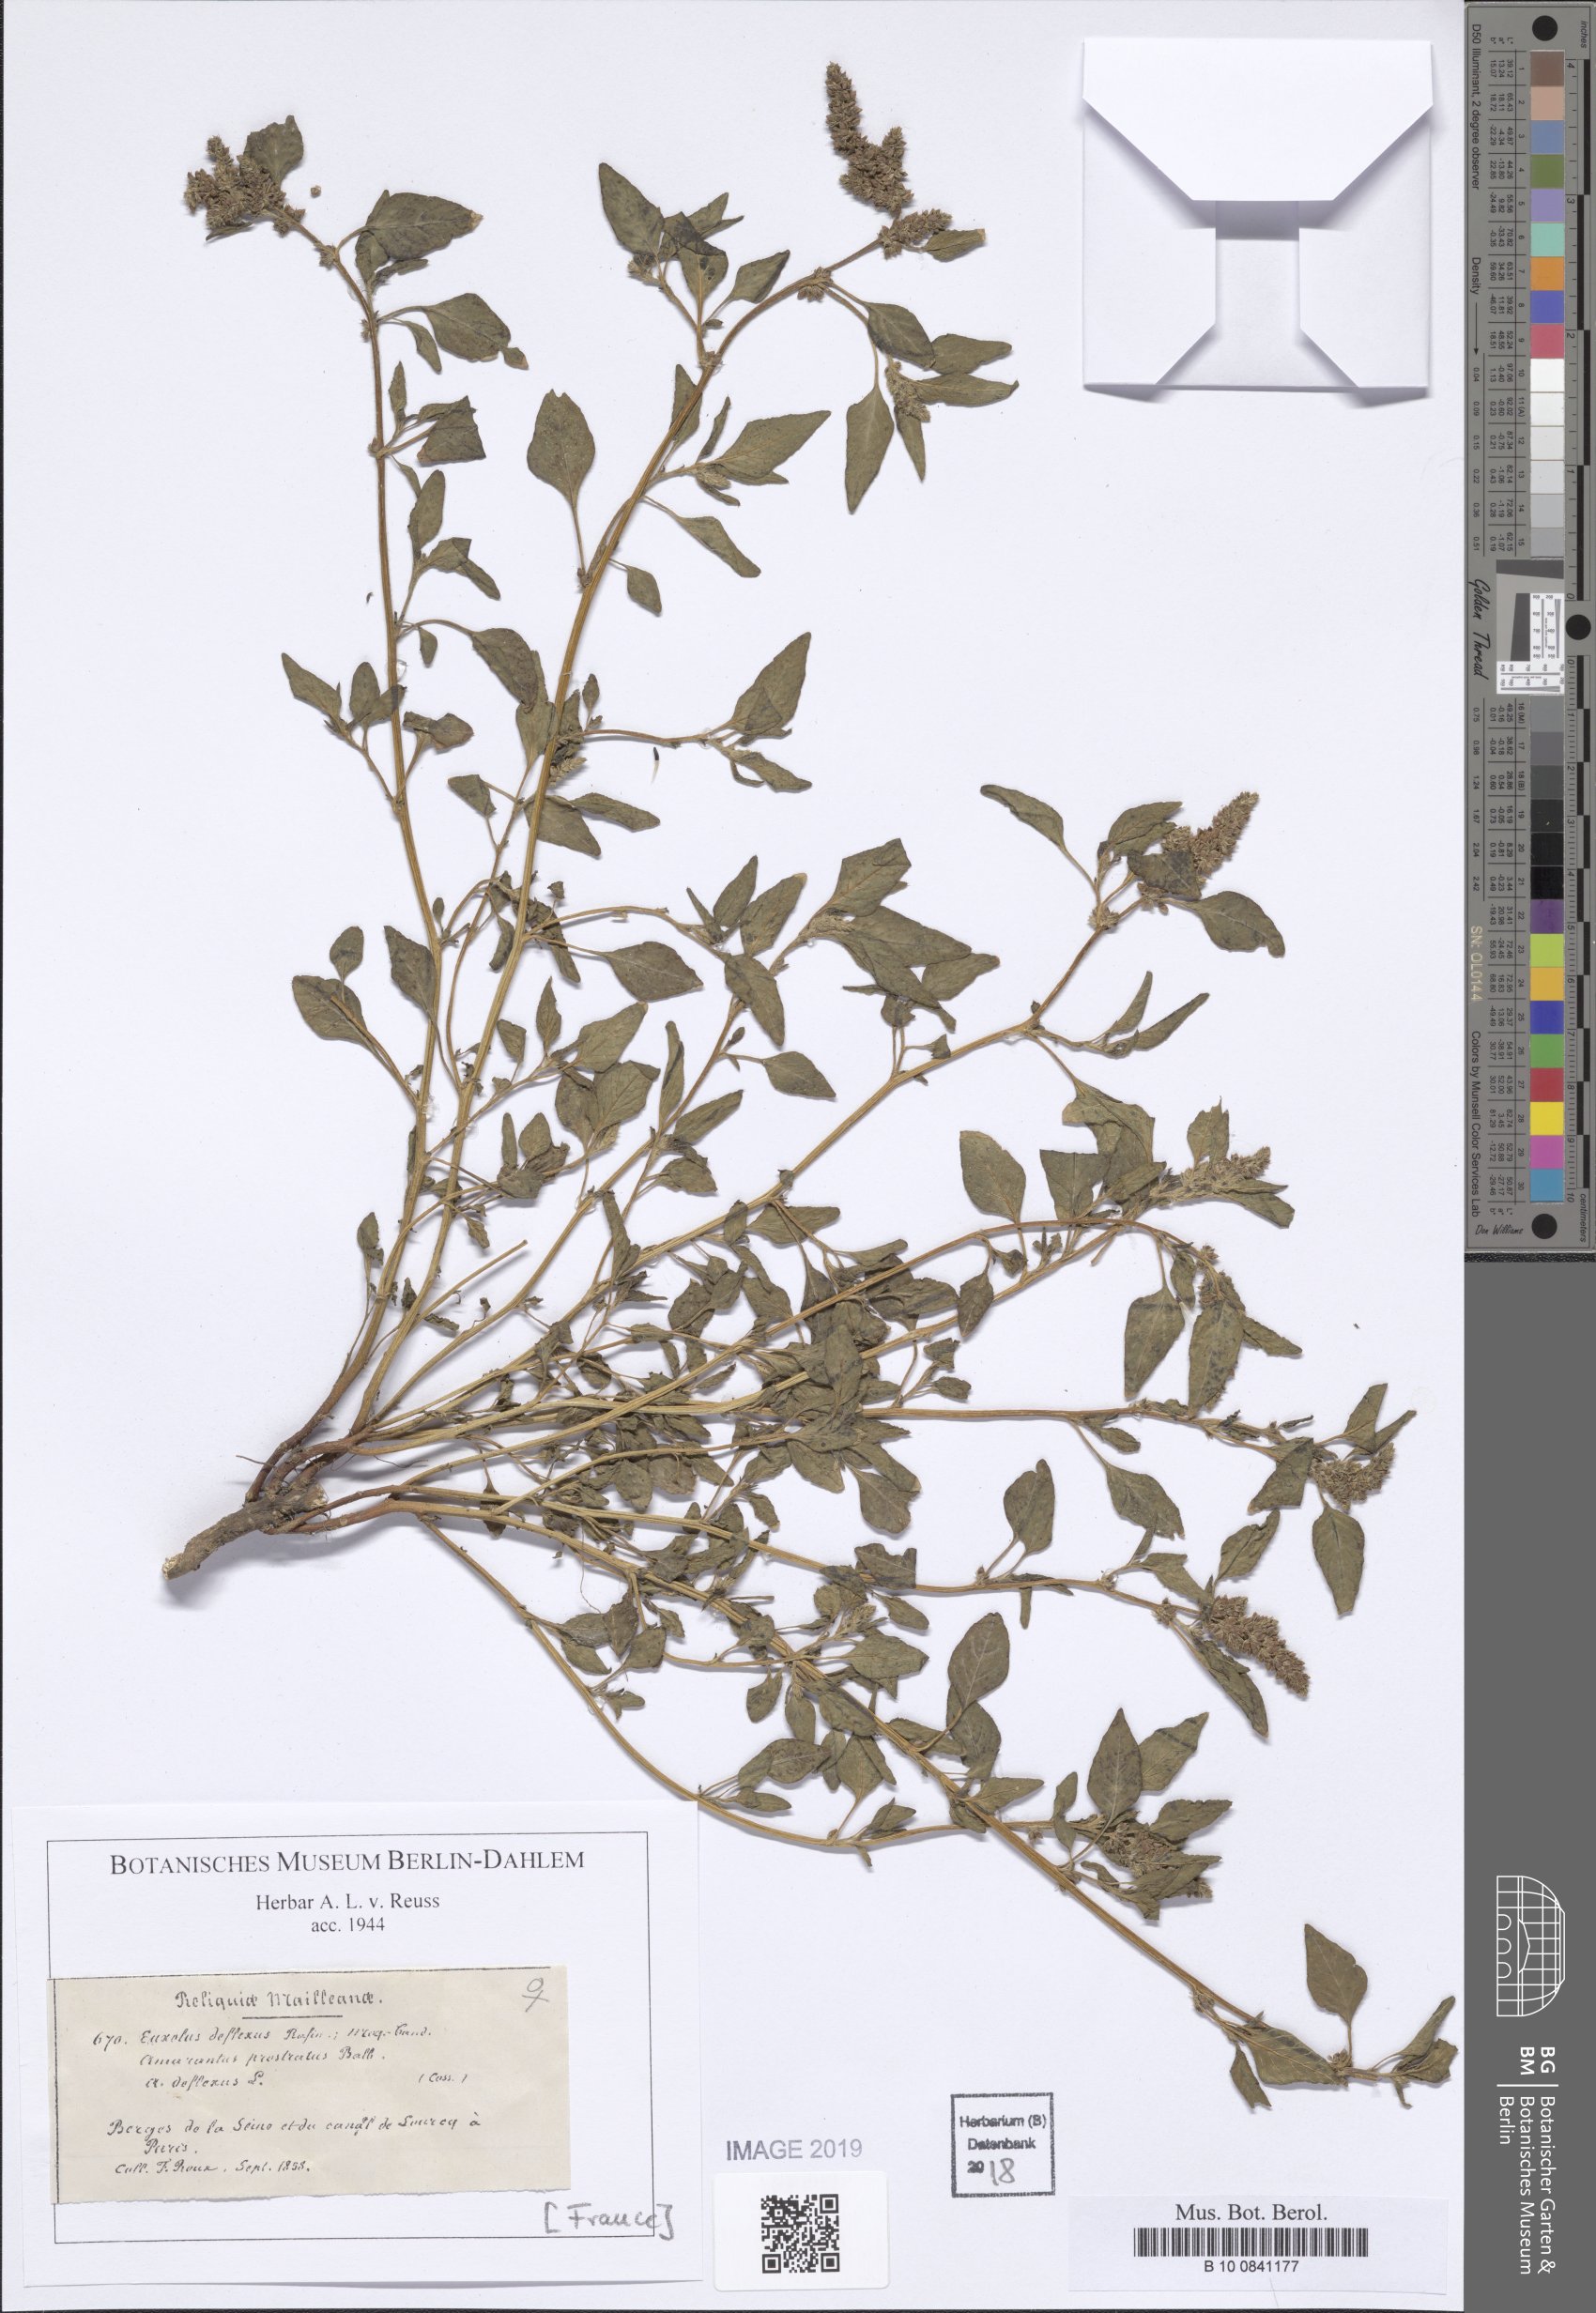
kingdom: Plantae
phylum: Tracheophyta
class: Magnoliopsida
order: Caryophyllales
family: Amaranthaceae
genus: Amaranthus
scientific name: Amaranthus deflexus
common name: Perennial pigweed
